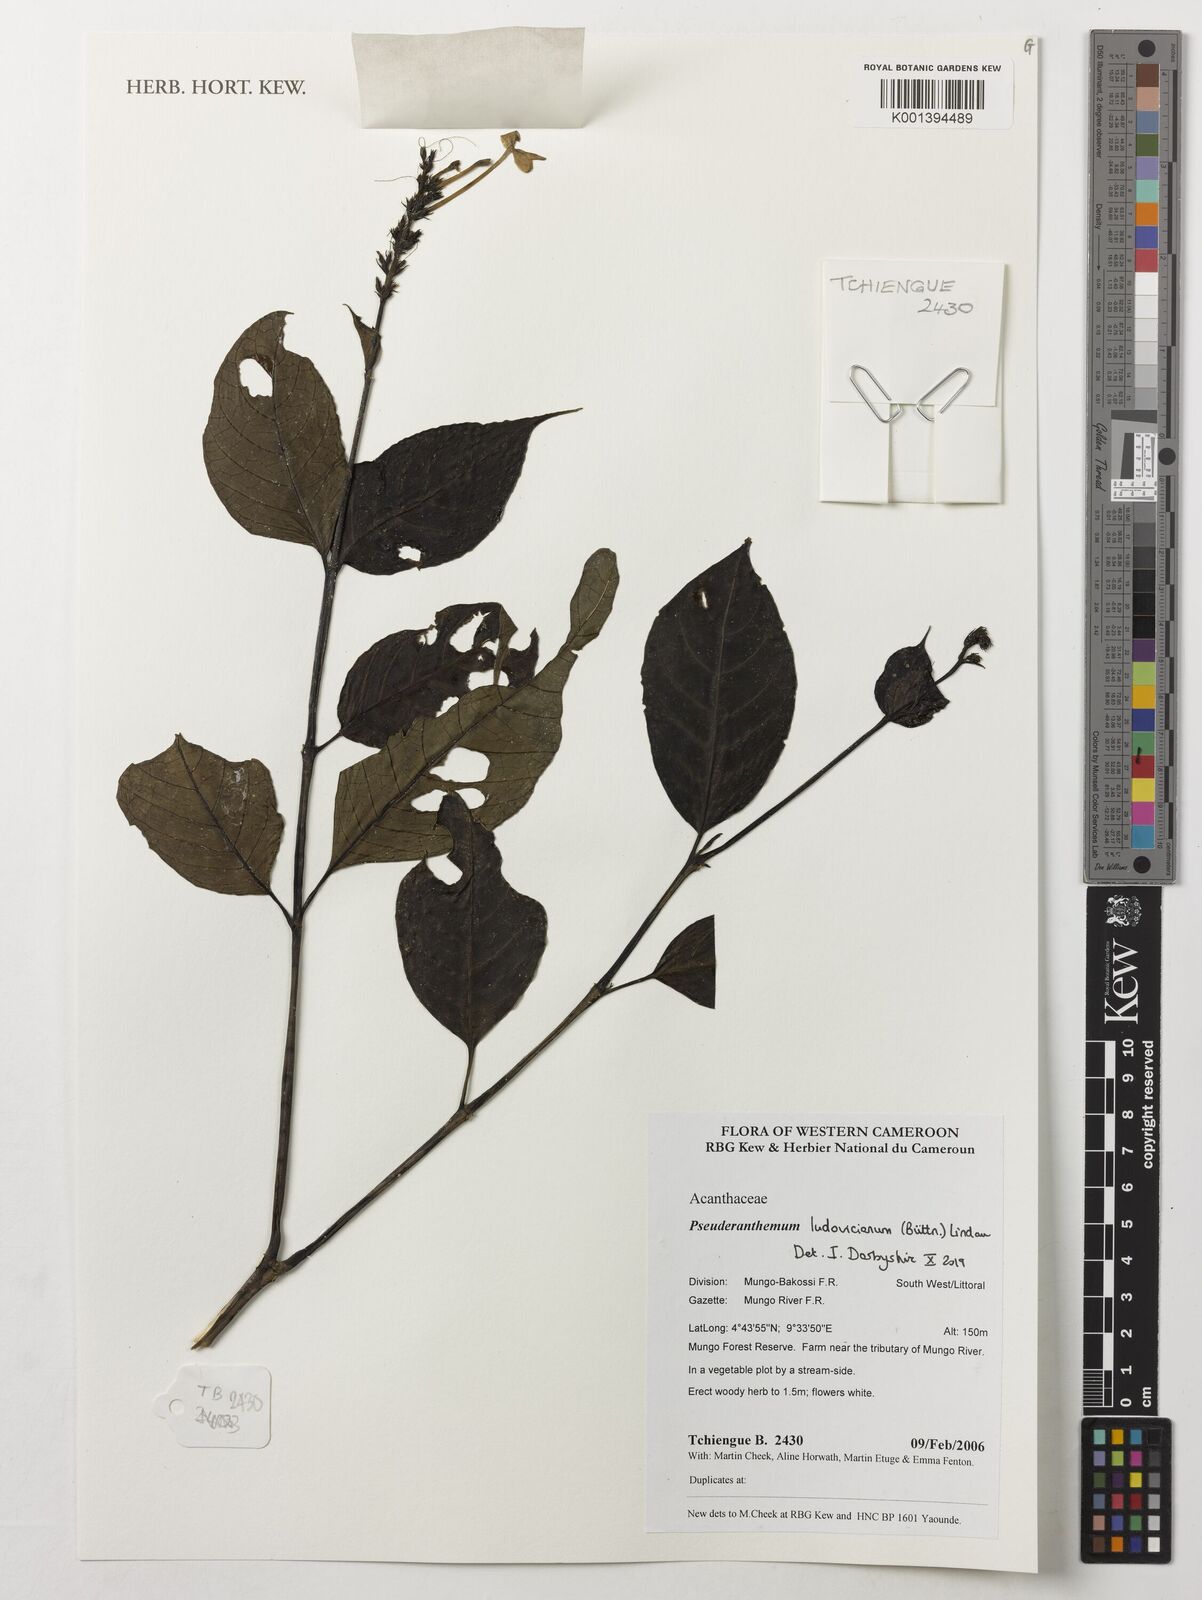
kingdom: Plantae
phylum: Tracheophyta
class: Magnoliopsida
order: Lamiales
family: Acanthaceae
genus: Pseuderanthemum
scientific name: Pseuderanthemum ludovicianum
